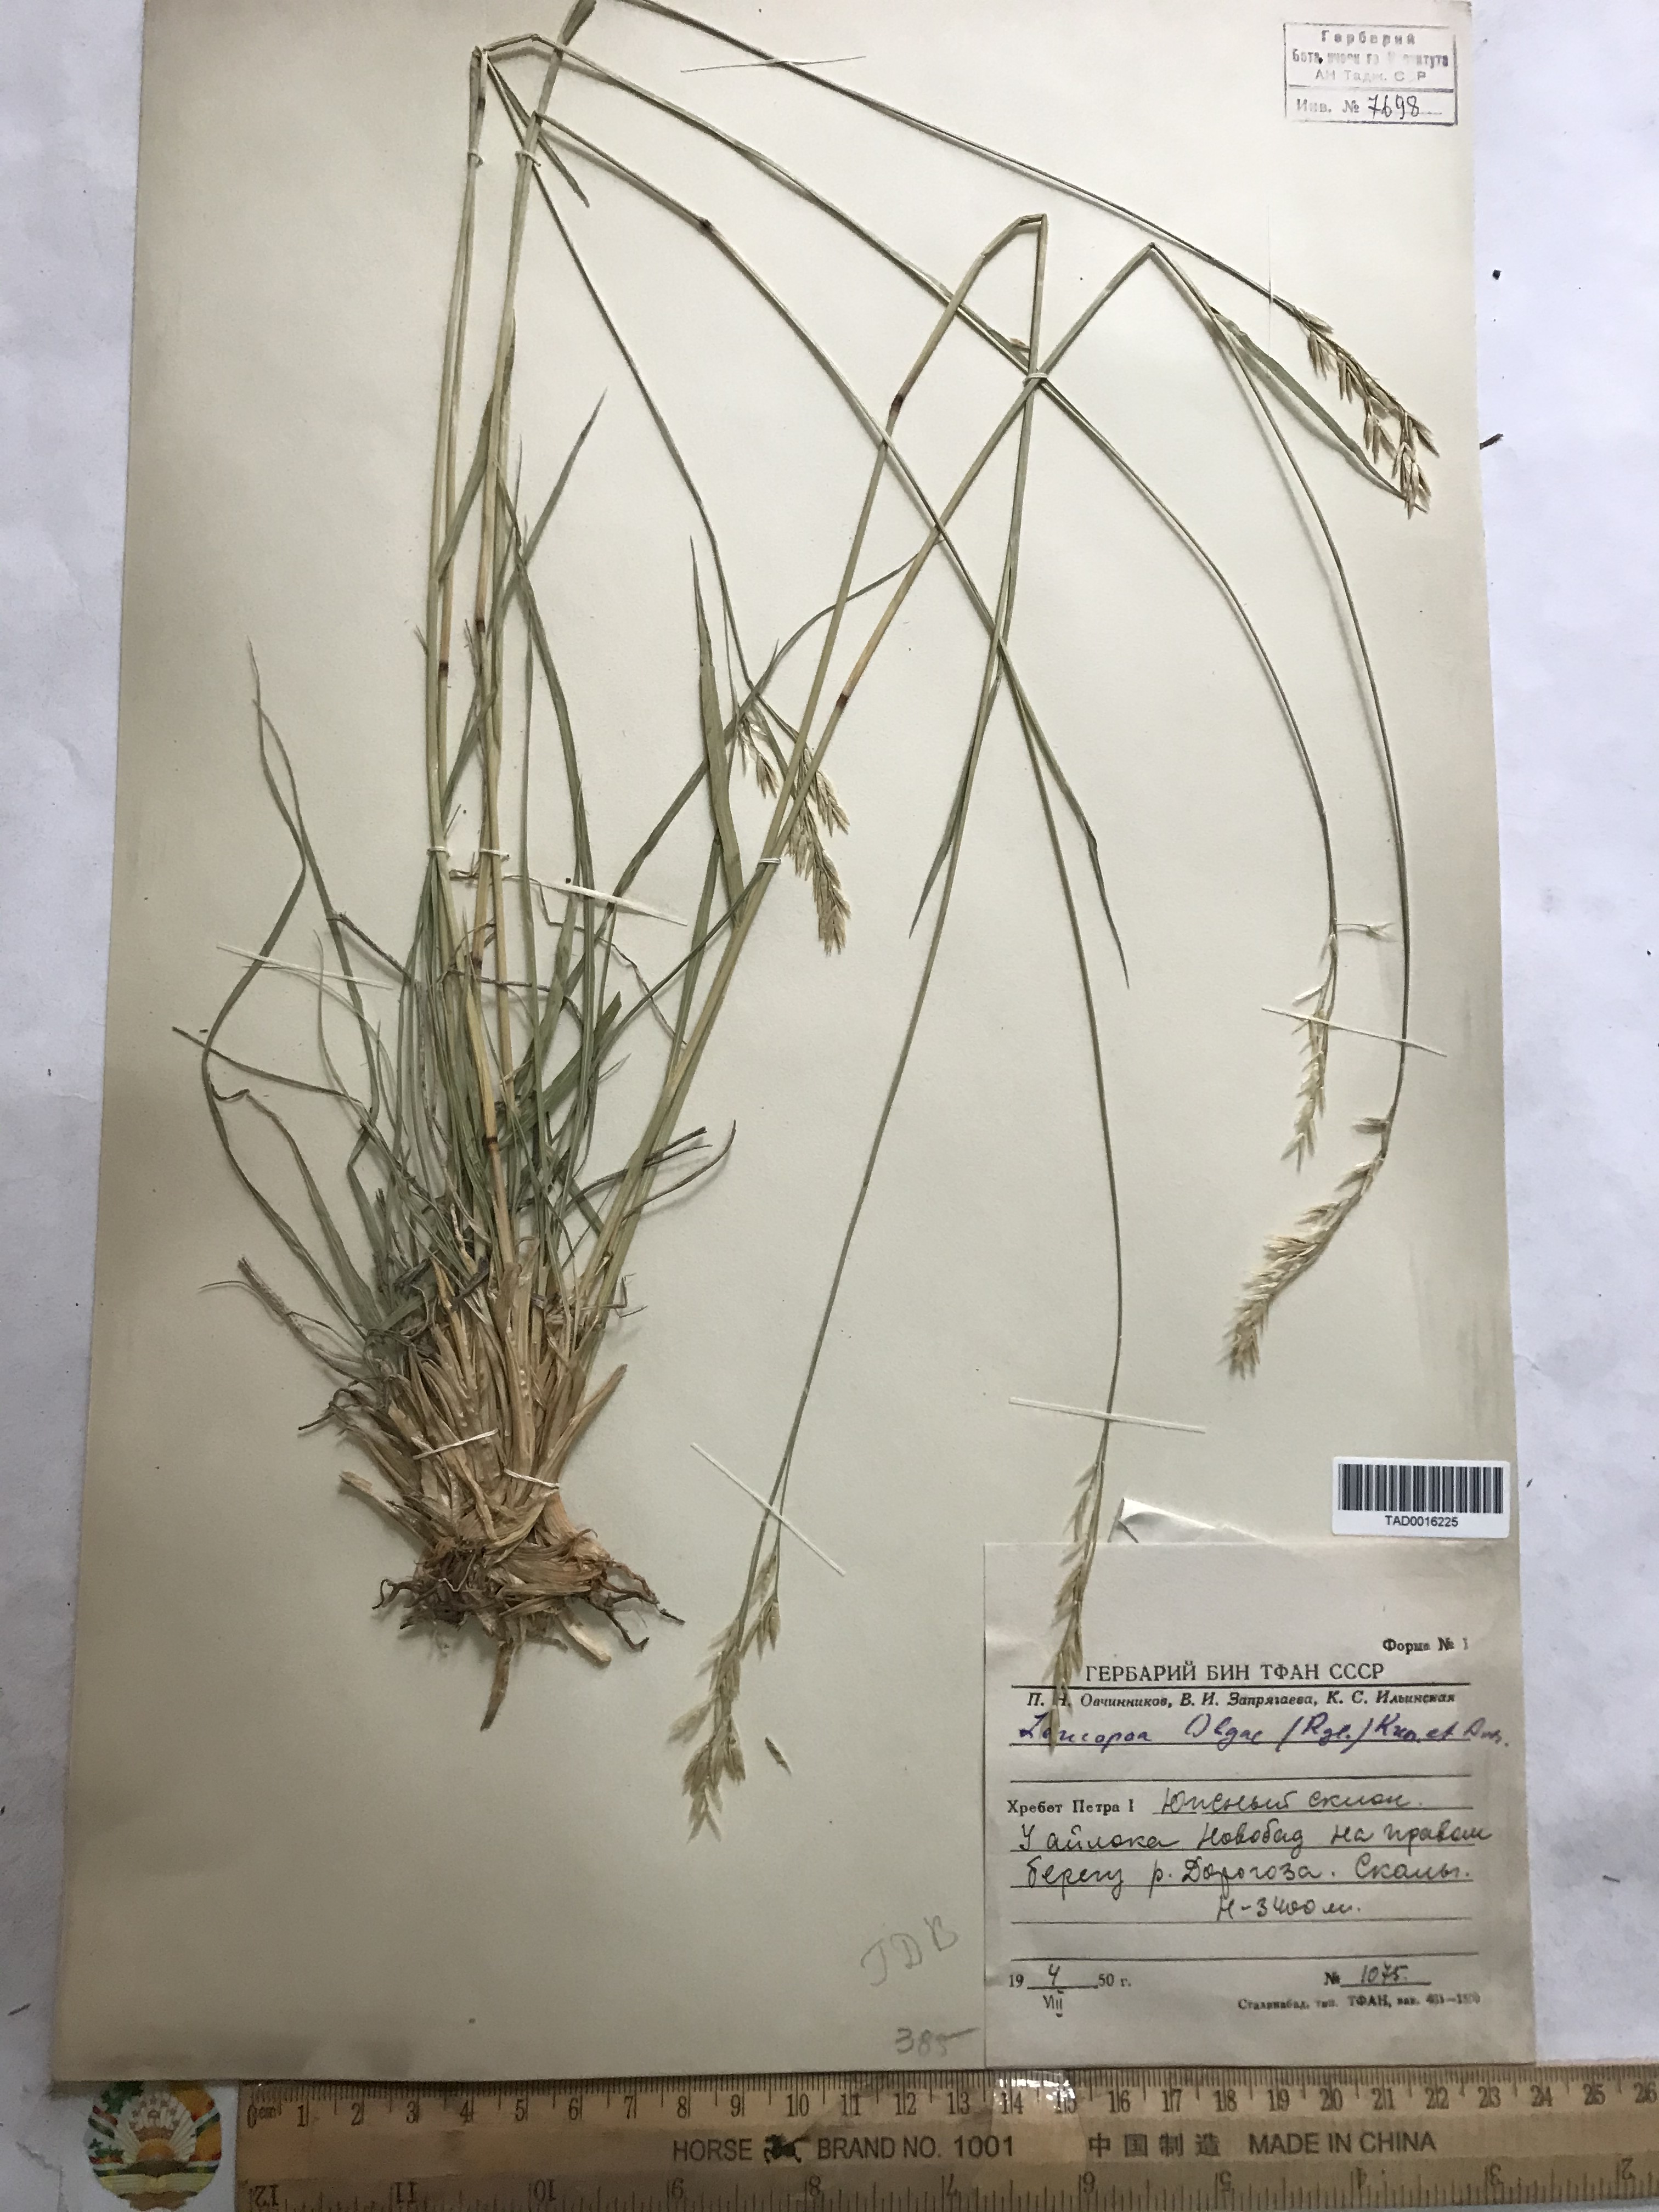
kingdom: Plantae
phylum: Tracheophyta
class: Liliopsida
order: Poales
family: Poaceae
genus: Festuca
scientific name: Festuca
